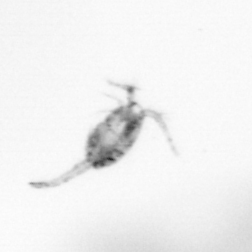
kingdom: Animalia
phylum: Arthropoda
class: Copepoda
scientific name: Copepoda
